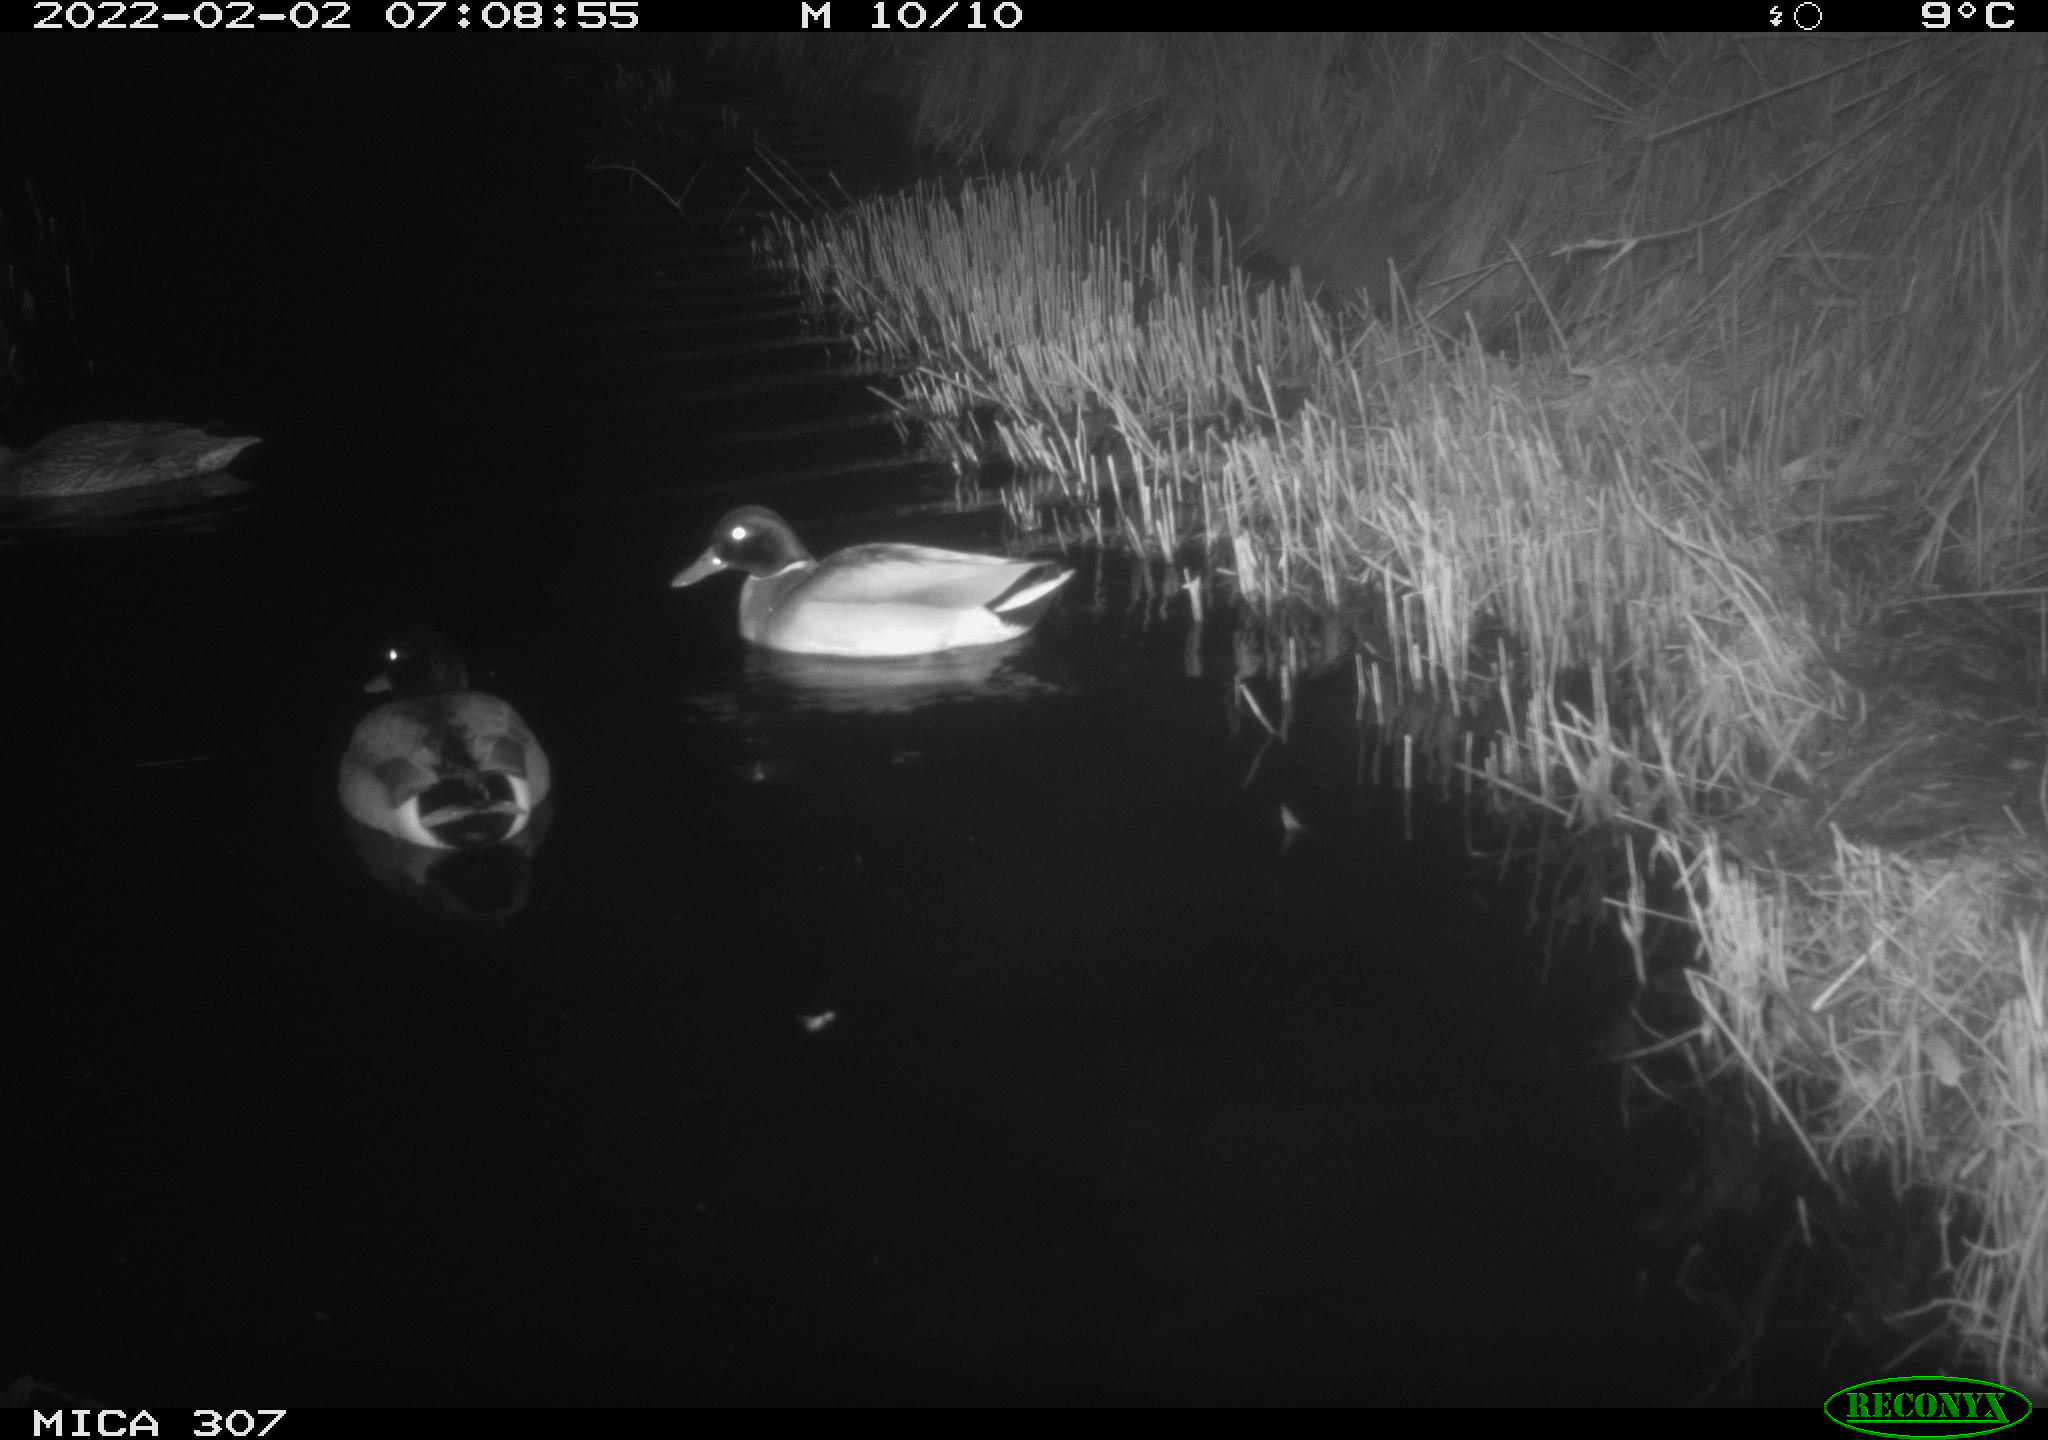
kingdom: Animalia
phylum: Chordata
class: Aves
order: Anseriformes
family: Anatidae
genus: Anas
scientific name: Anas
